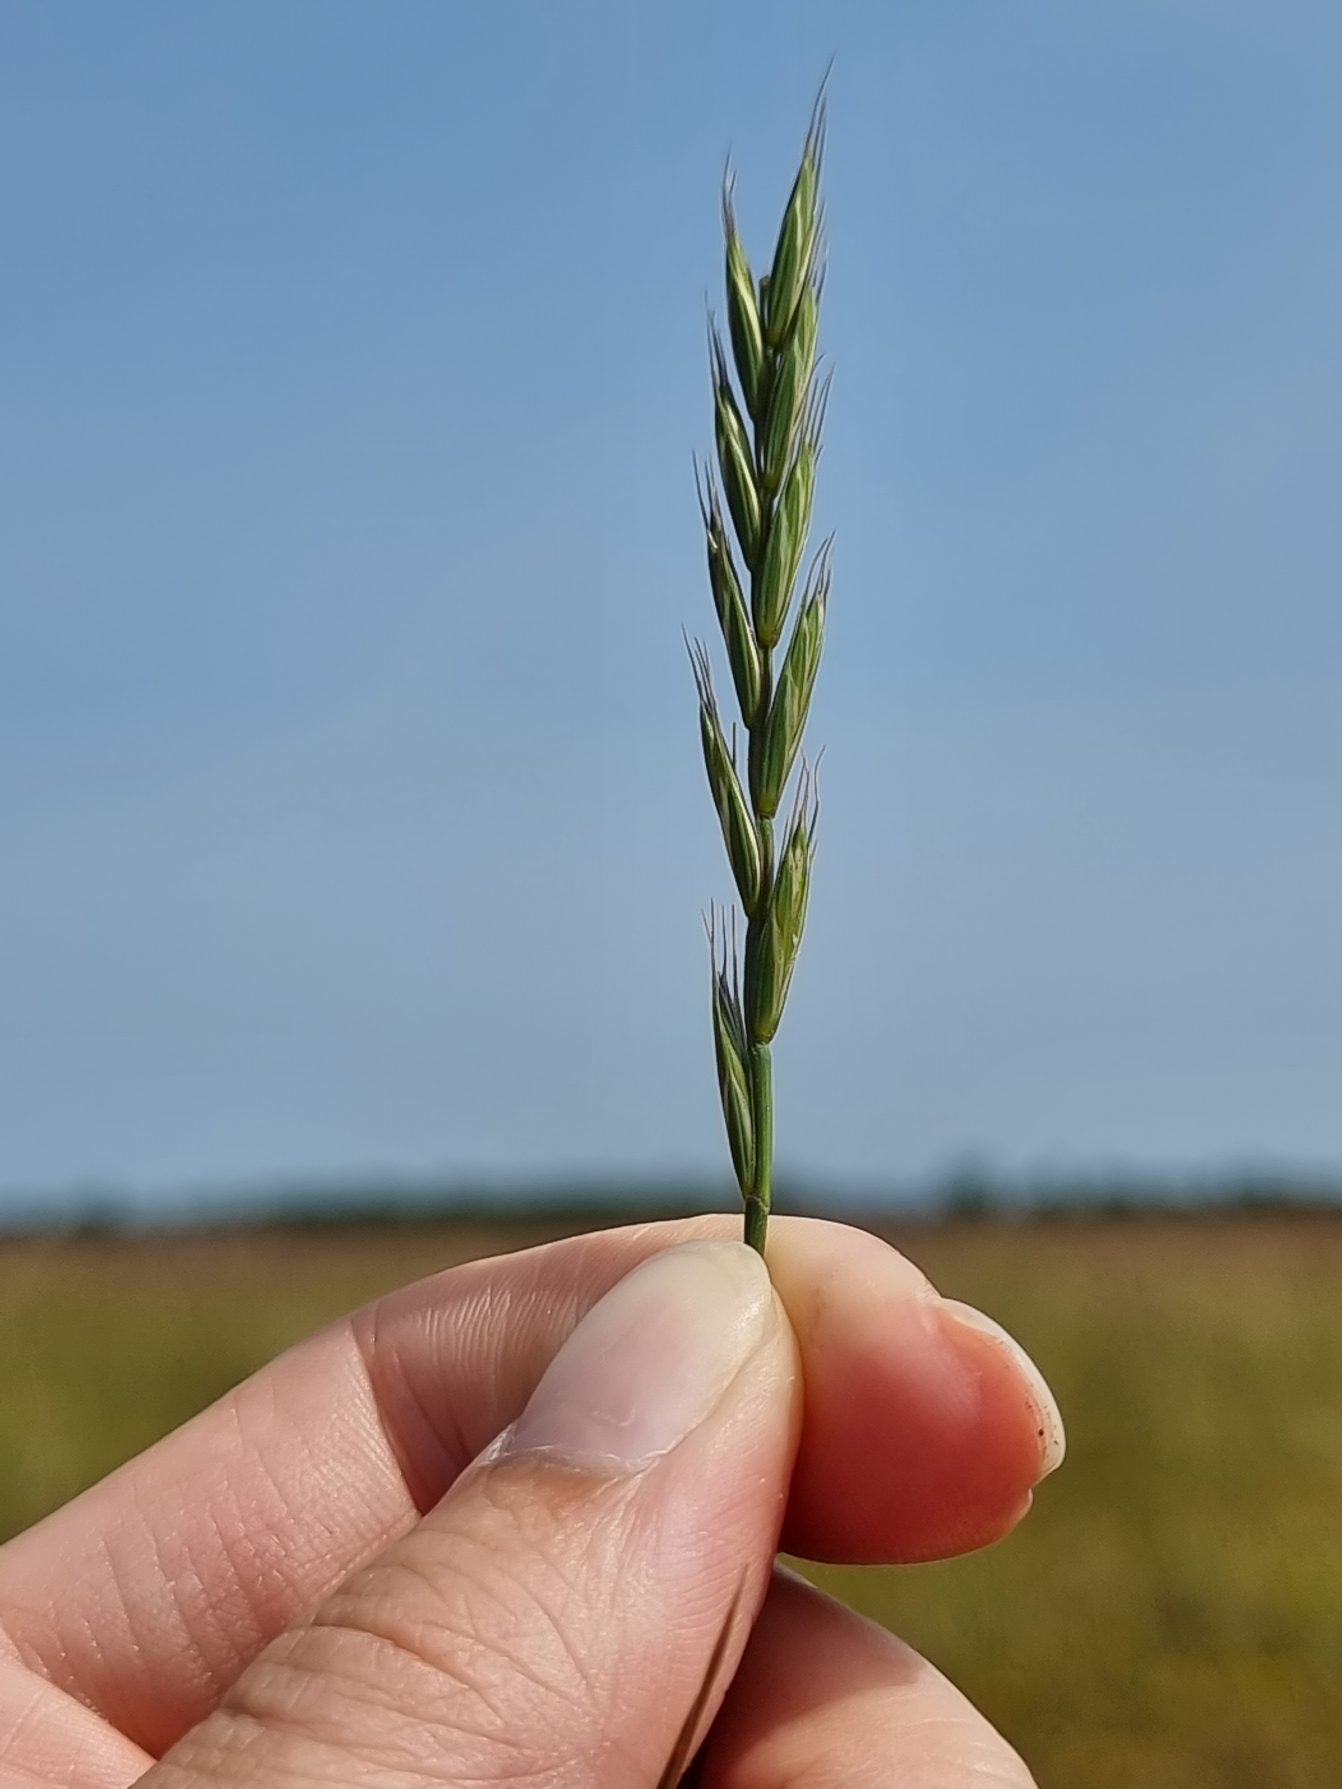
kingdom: Plantae
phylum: Tracheophyta
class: Liliopsida
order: Poales
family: Poaceae
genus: Elymus
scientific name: Elymus repens
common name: Almindelig kvik
